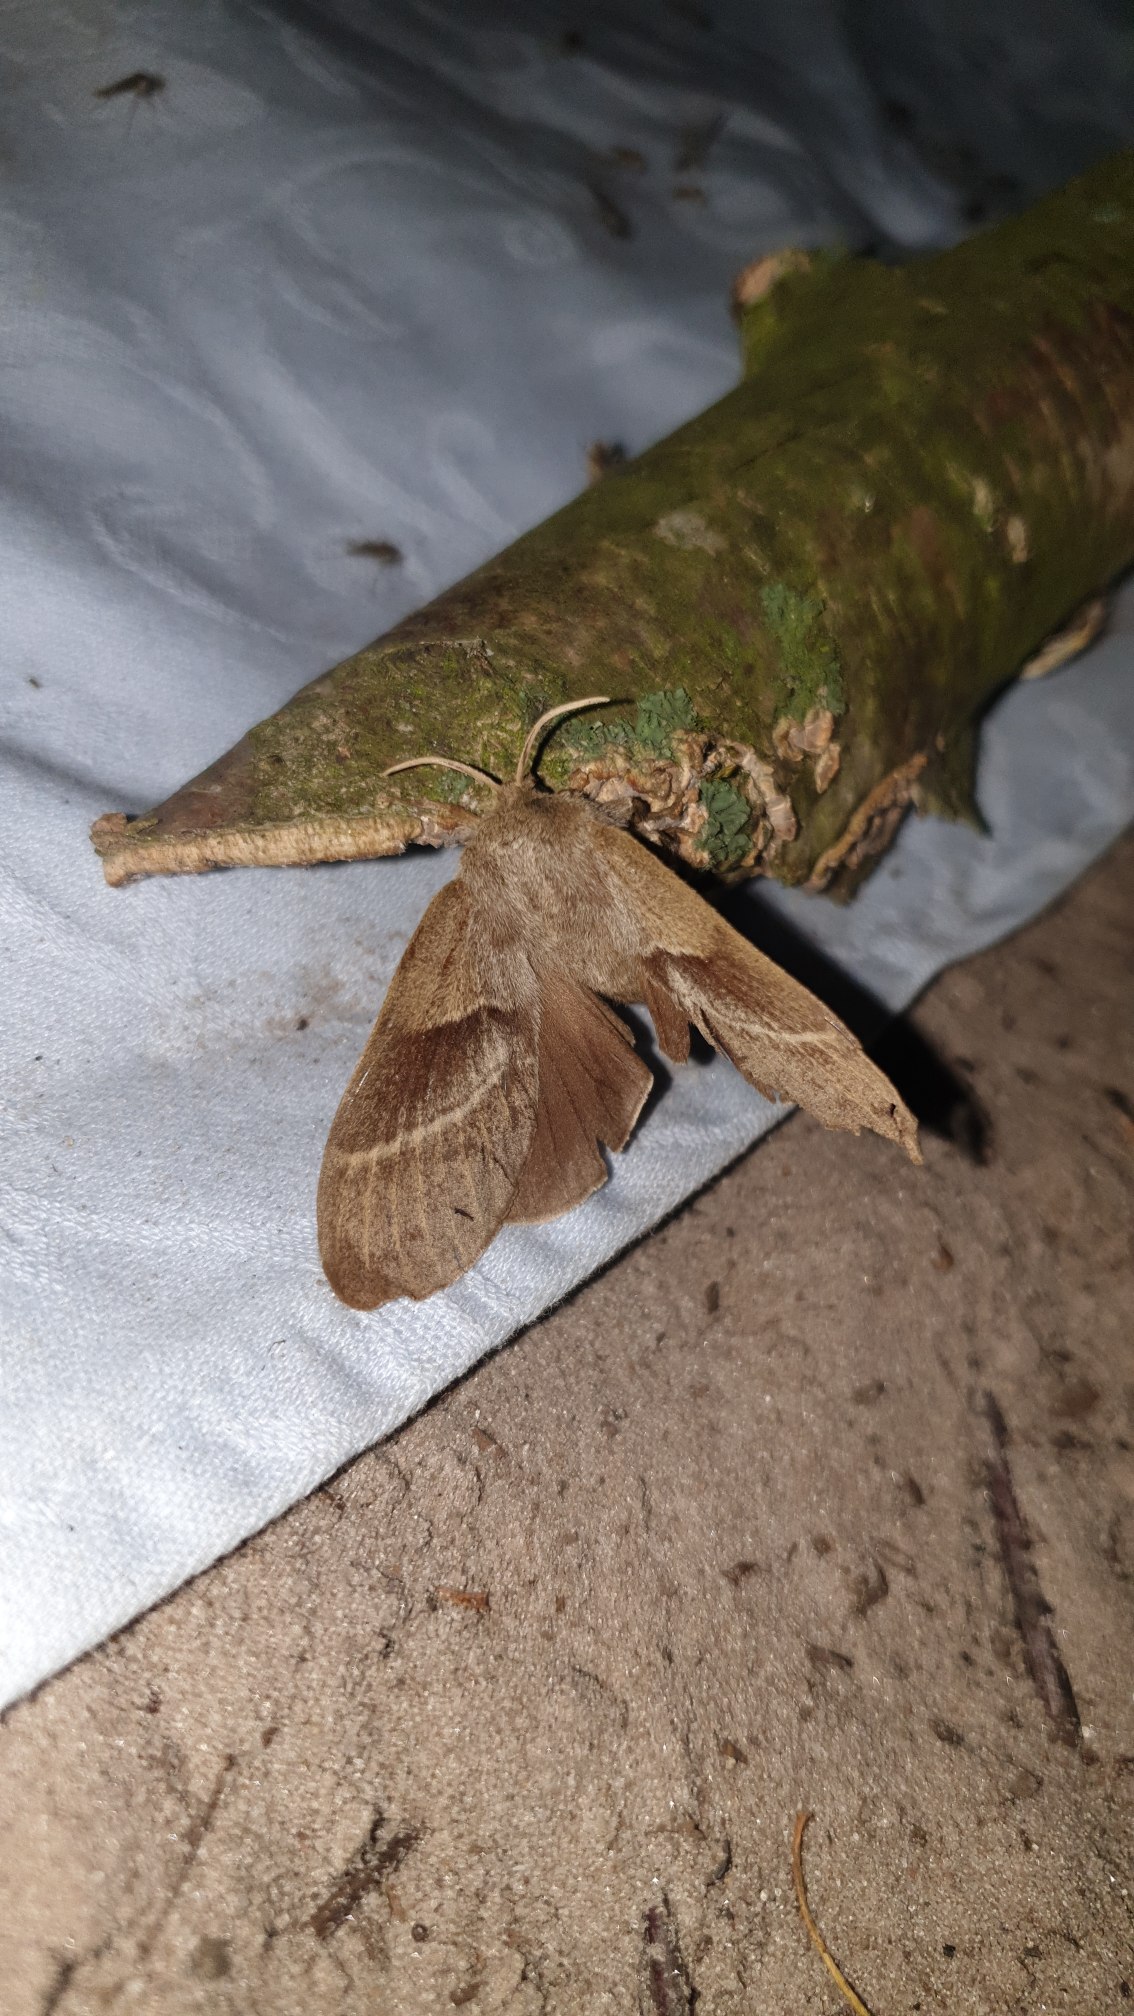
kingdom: Animalia
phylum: Arthropoda
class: Insecta
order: Lepidoptera
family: Lasiocampidae
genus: Macrothylacia
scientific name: Macrothylacia rubi
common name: Brombærspinder
